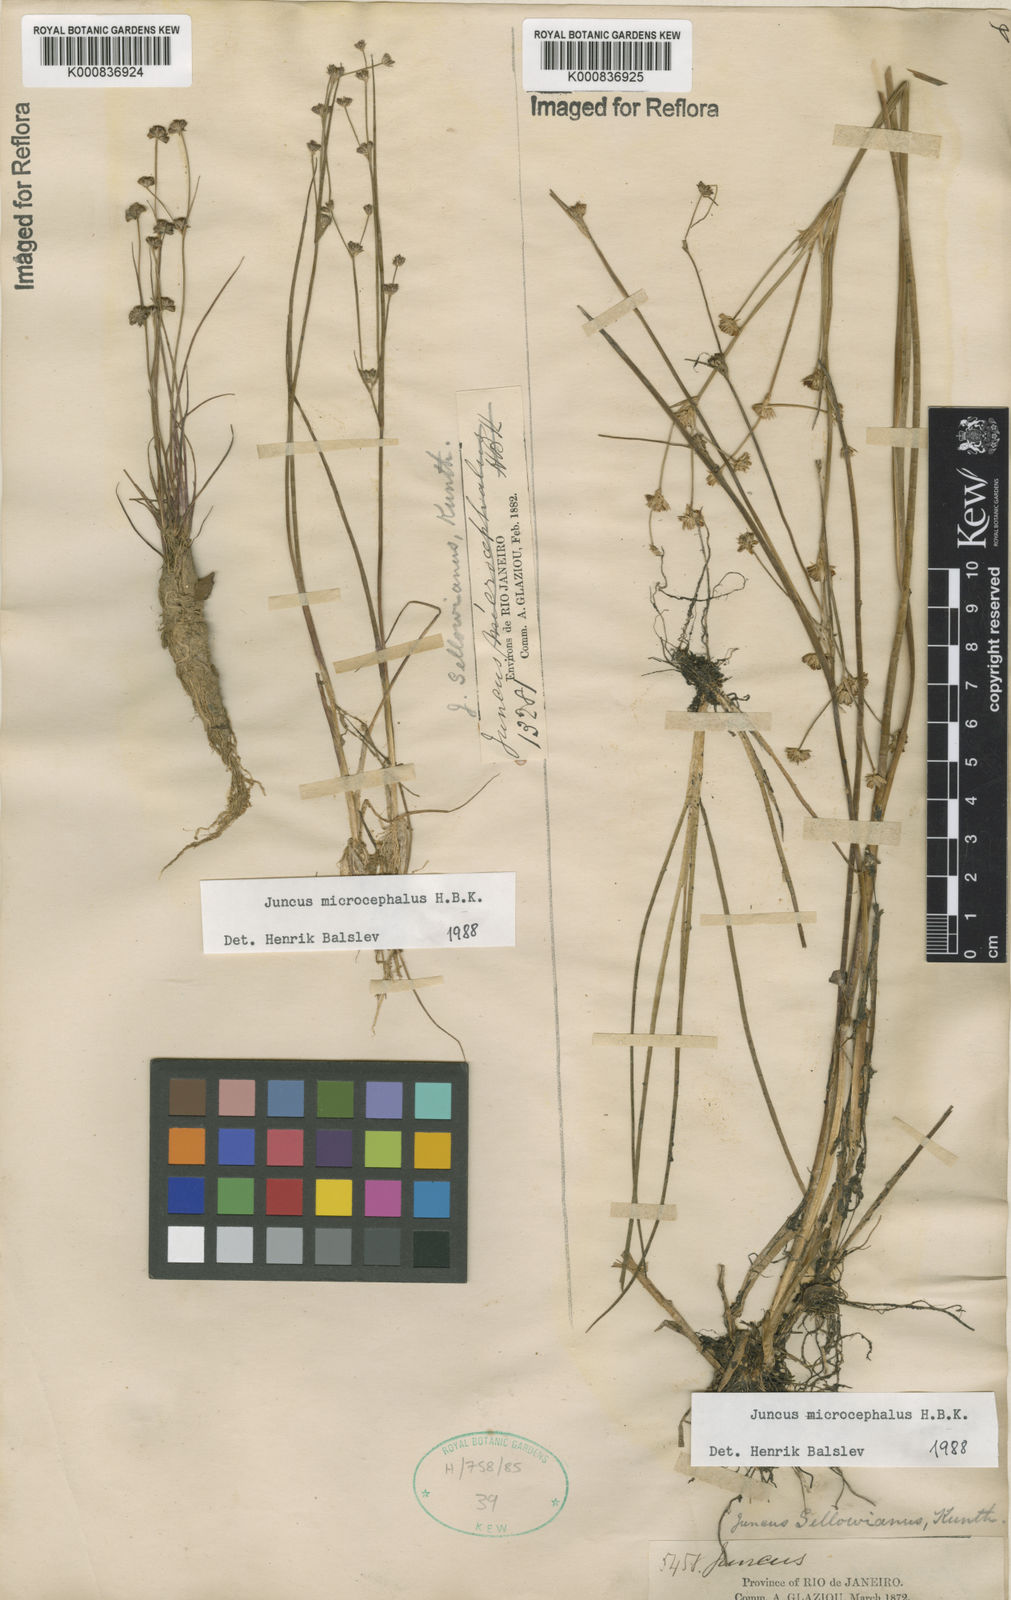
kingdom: Plantae
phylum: Tracheophyta
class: Liliopsida
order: Poales
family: Juncaceae
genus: Juncus
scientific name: Juncus microcephalus
